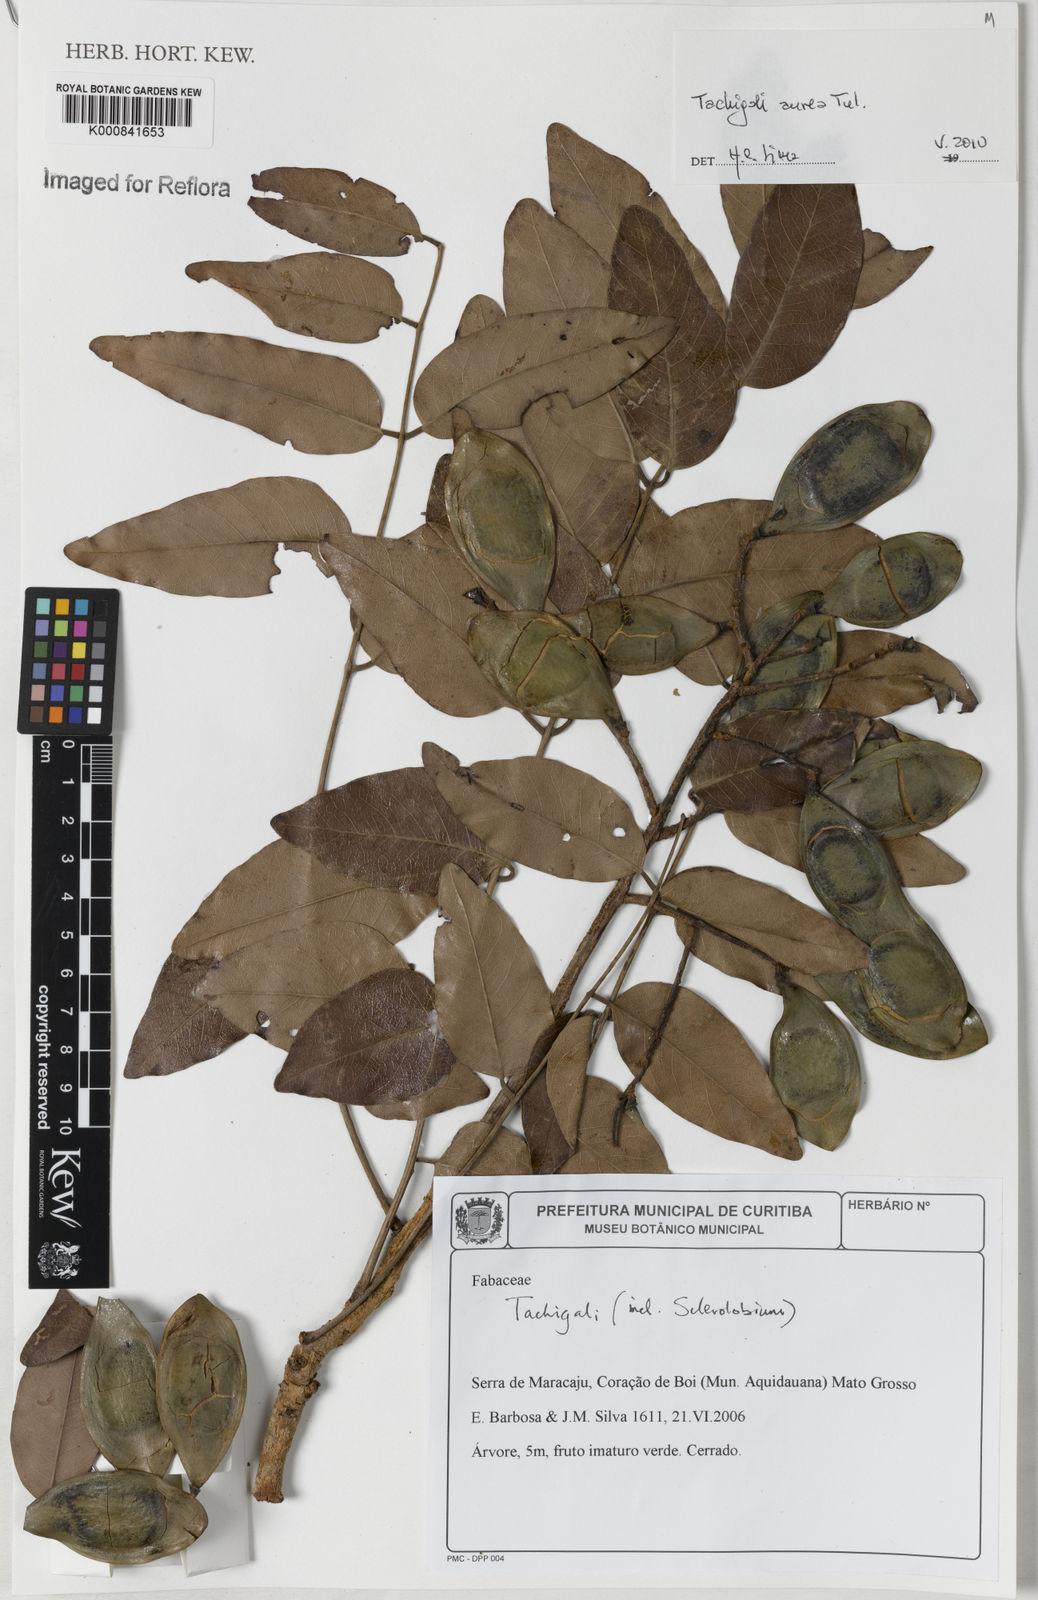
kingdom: Plantae
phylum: Tracheophyta
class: Magnoliopsida
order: Fabales
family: Fabaceae
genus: Tachigali
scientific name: Tachigali aurea
